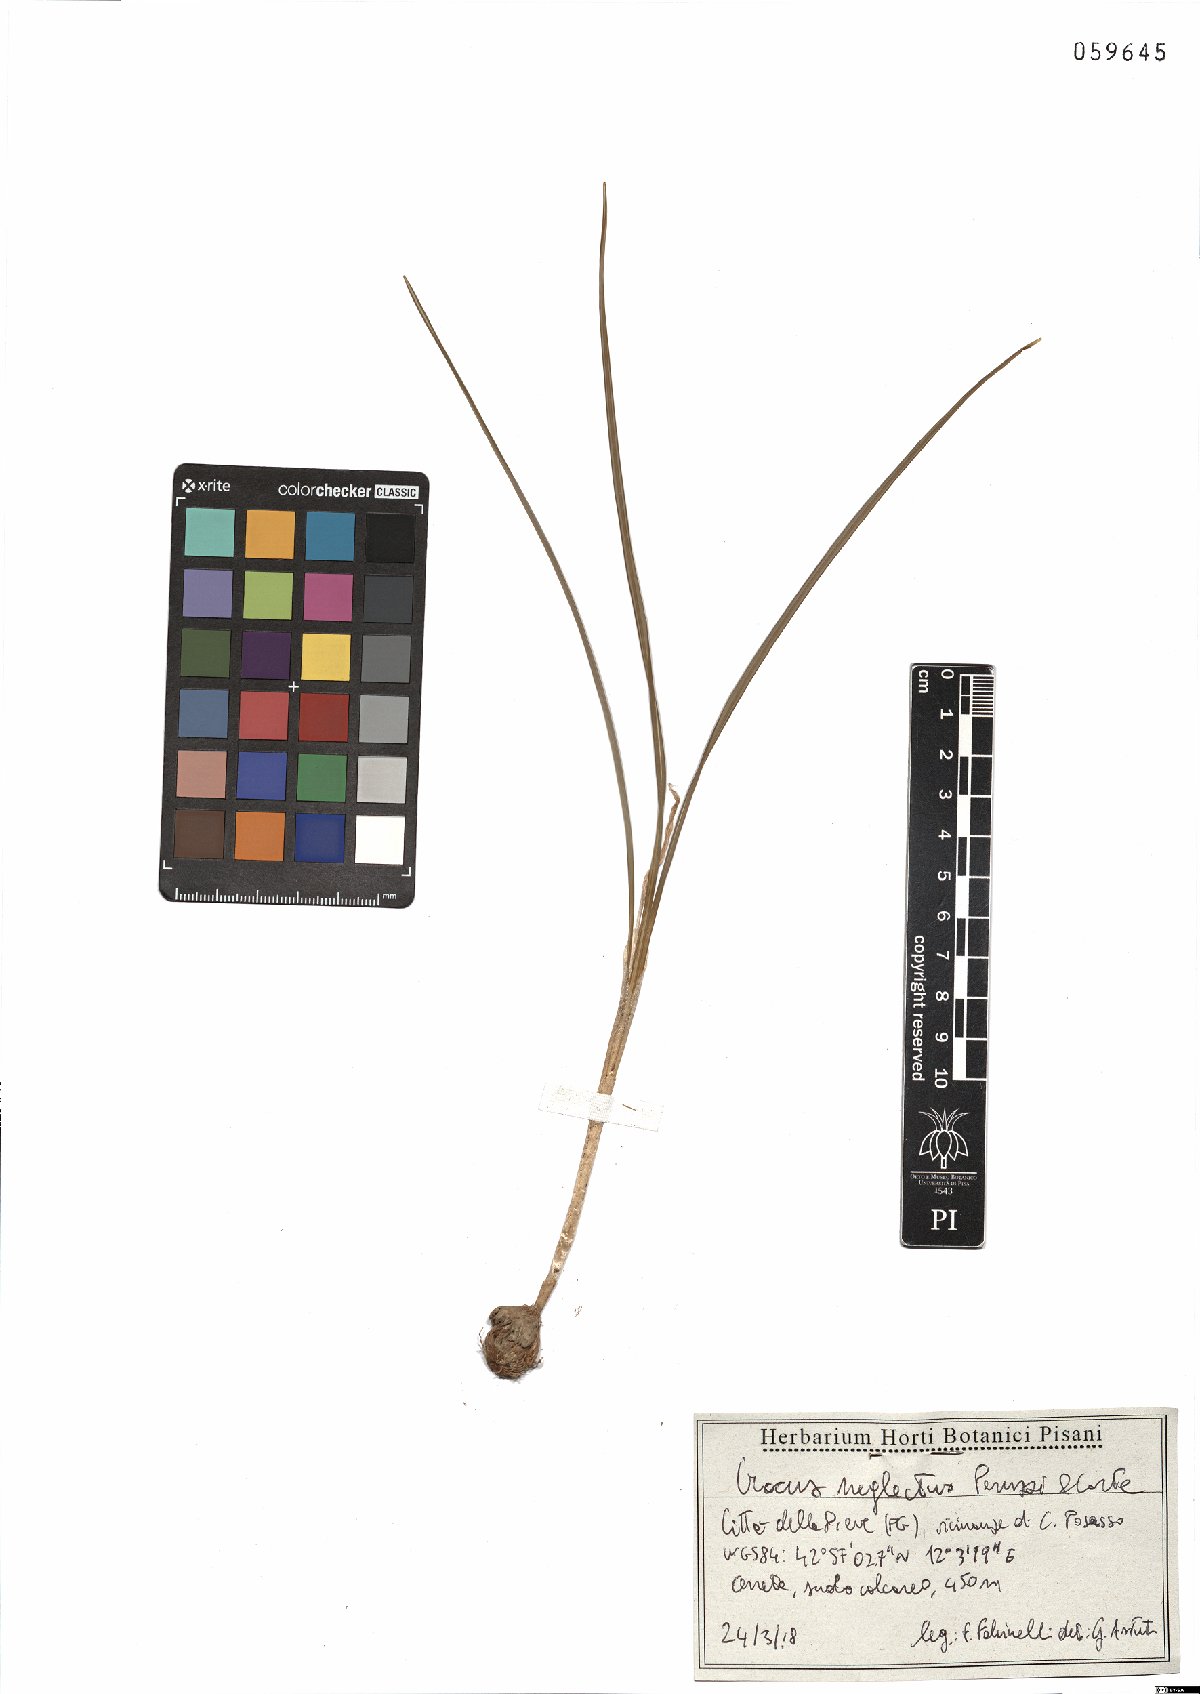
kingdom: Plantae
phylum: Tracheophyta
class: Liliopsida
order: Asparagales
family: Iridaceae
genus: Crocus
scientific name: Crocus neglectus
